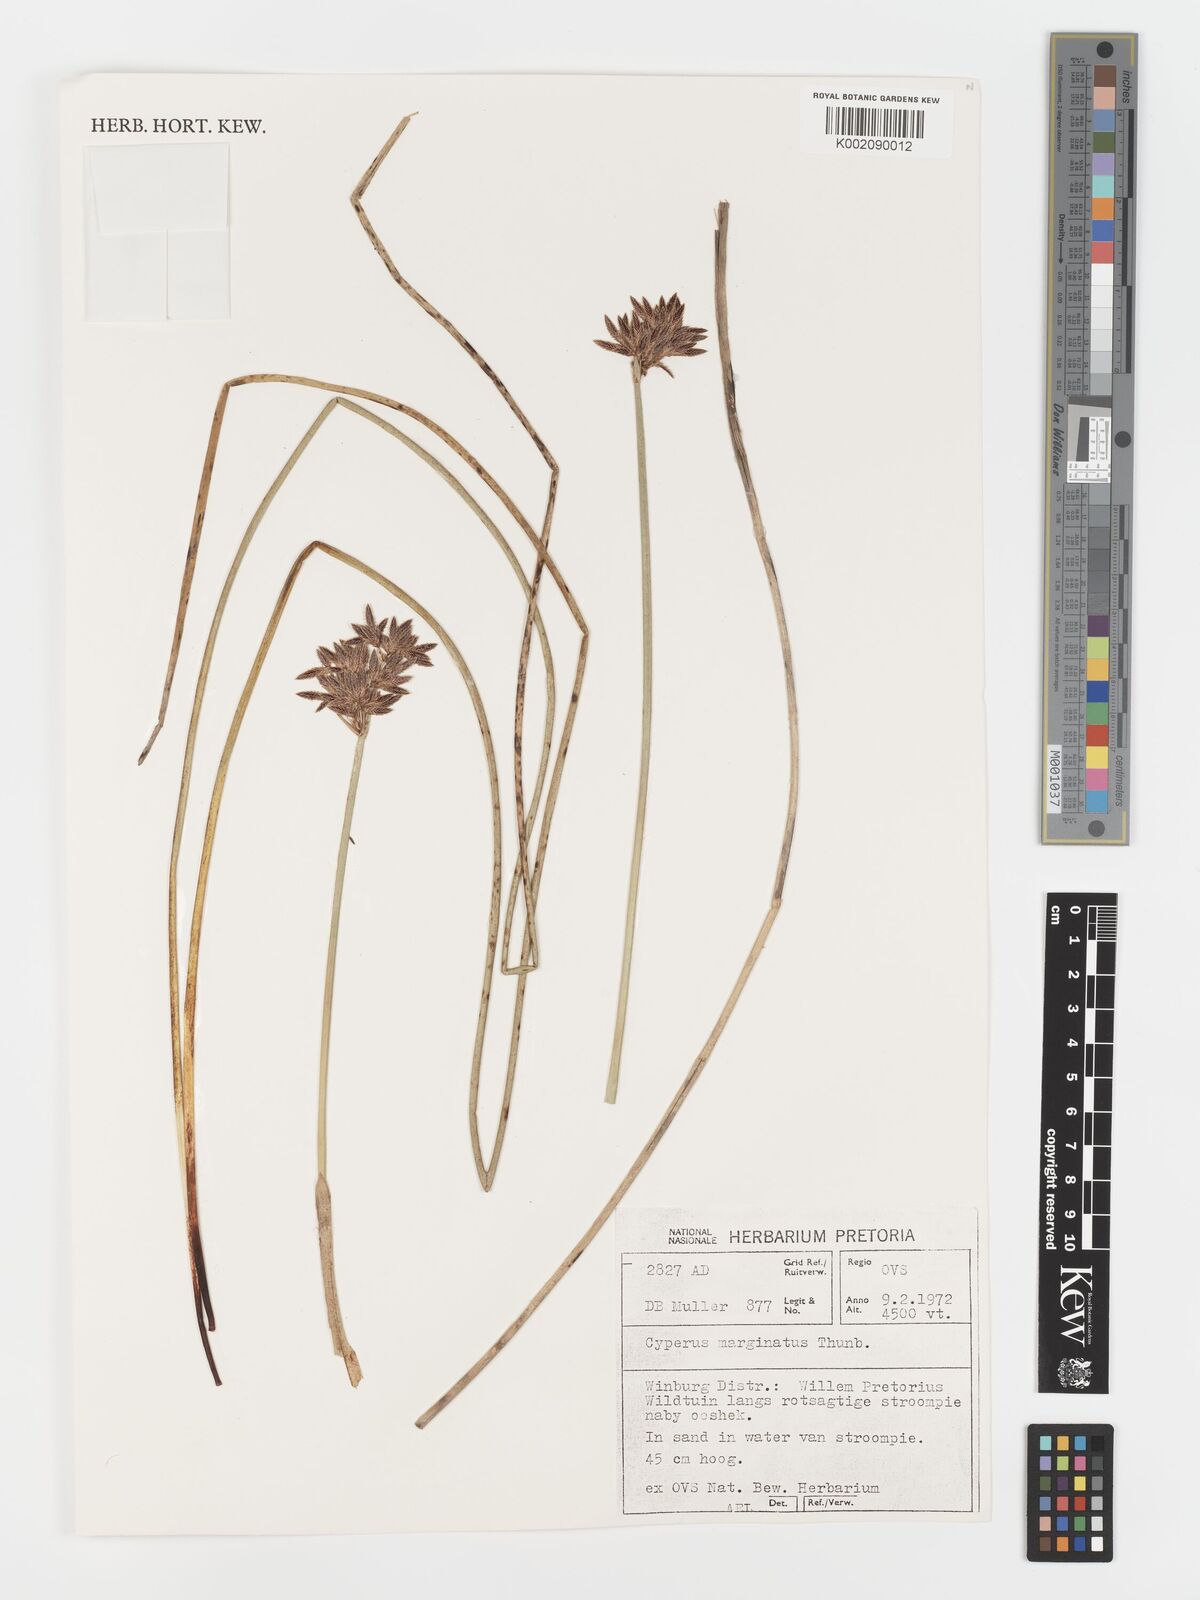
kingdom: Plantae
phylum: Tracheophyta
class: Liliopsida
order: Poales
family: Cyperaceae
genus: Cyperus
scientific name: Cyperus marginatus
